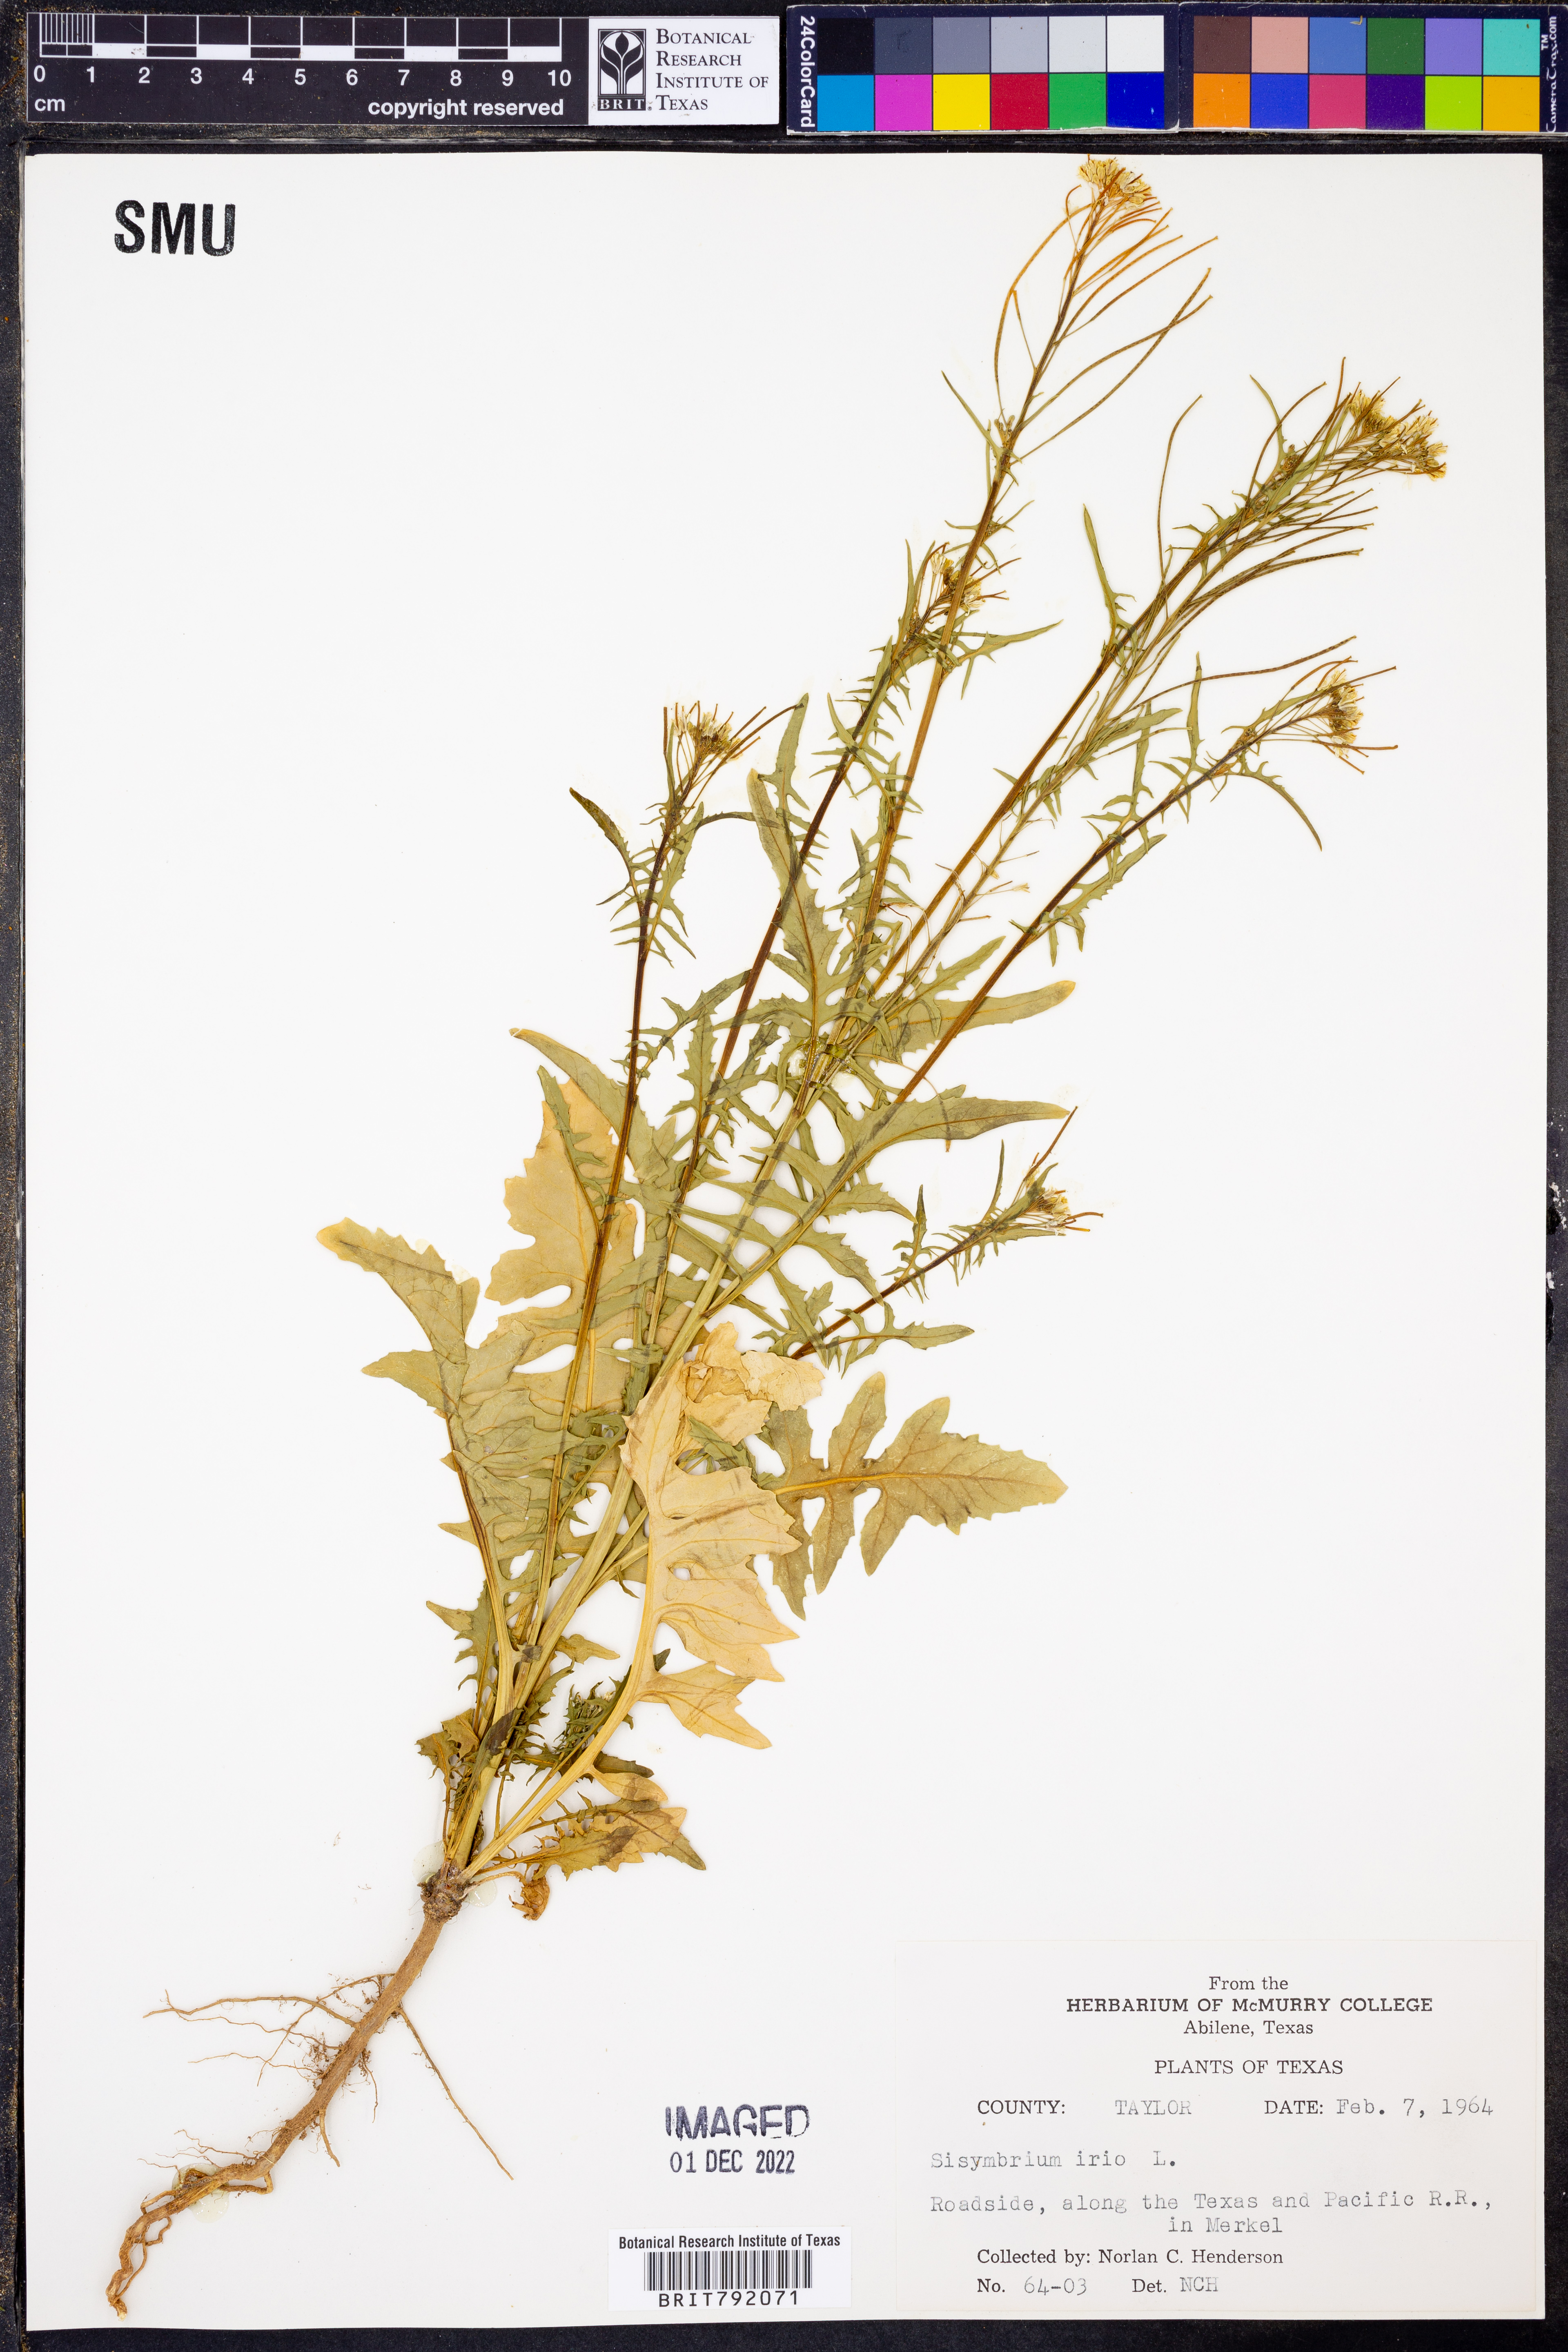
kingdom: Plantae
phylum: Tracheophyta
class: Magnoliopsida
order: Brassicales
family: Brassicaceae
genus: Sisymbrium
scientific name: Sisymbrium irio
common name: London rocket
